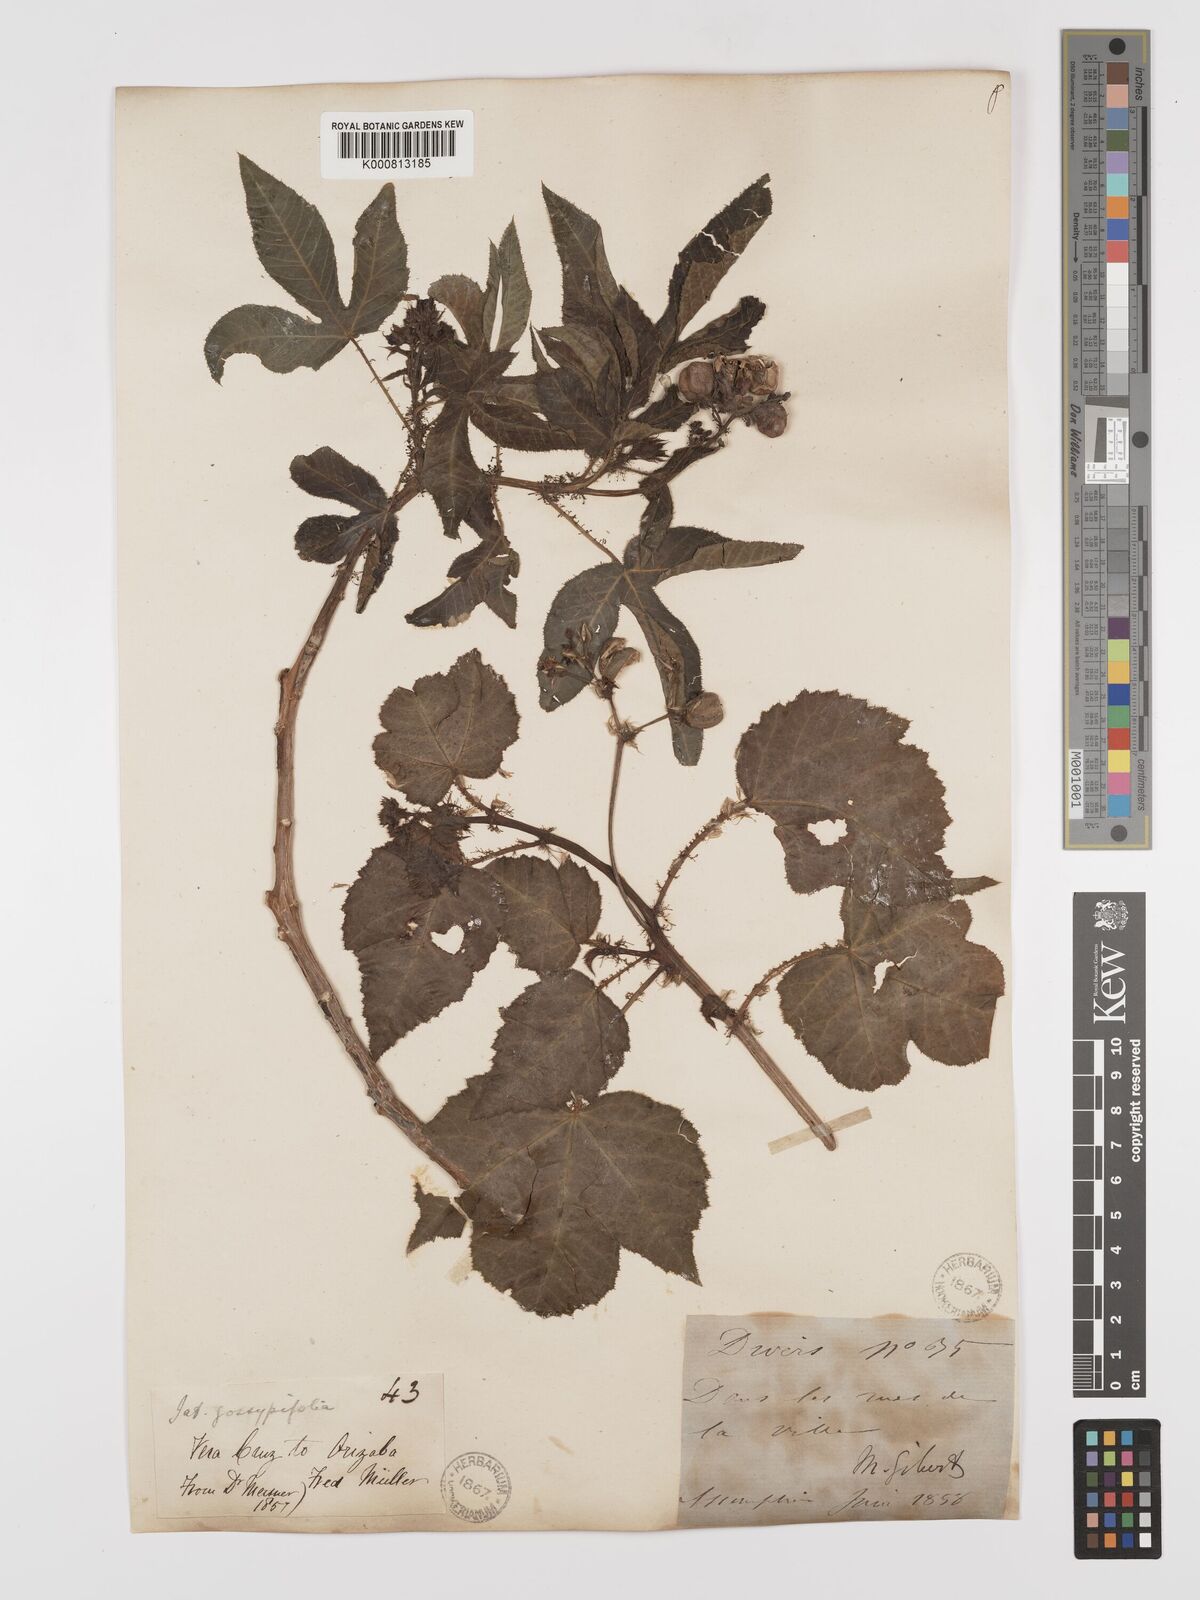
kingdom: Plantae
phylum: Tracheophyta
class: Magnoliopsida
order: Malpighiales
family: Euphorbiaceae
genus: Jatropha
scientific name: Jatropha gossypiifolia
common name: Bellyache bush
